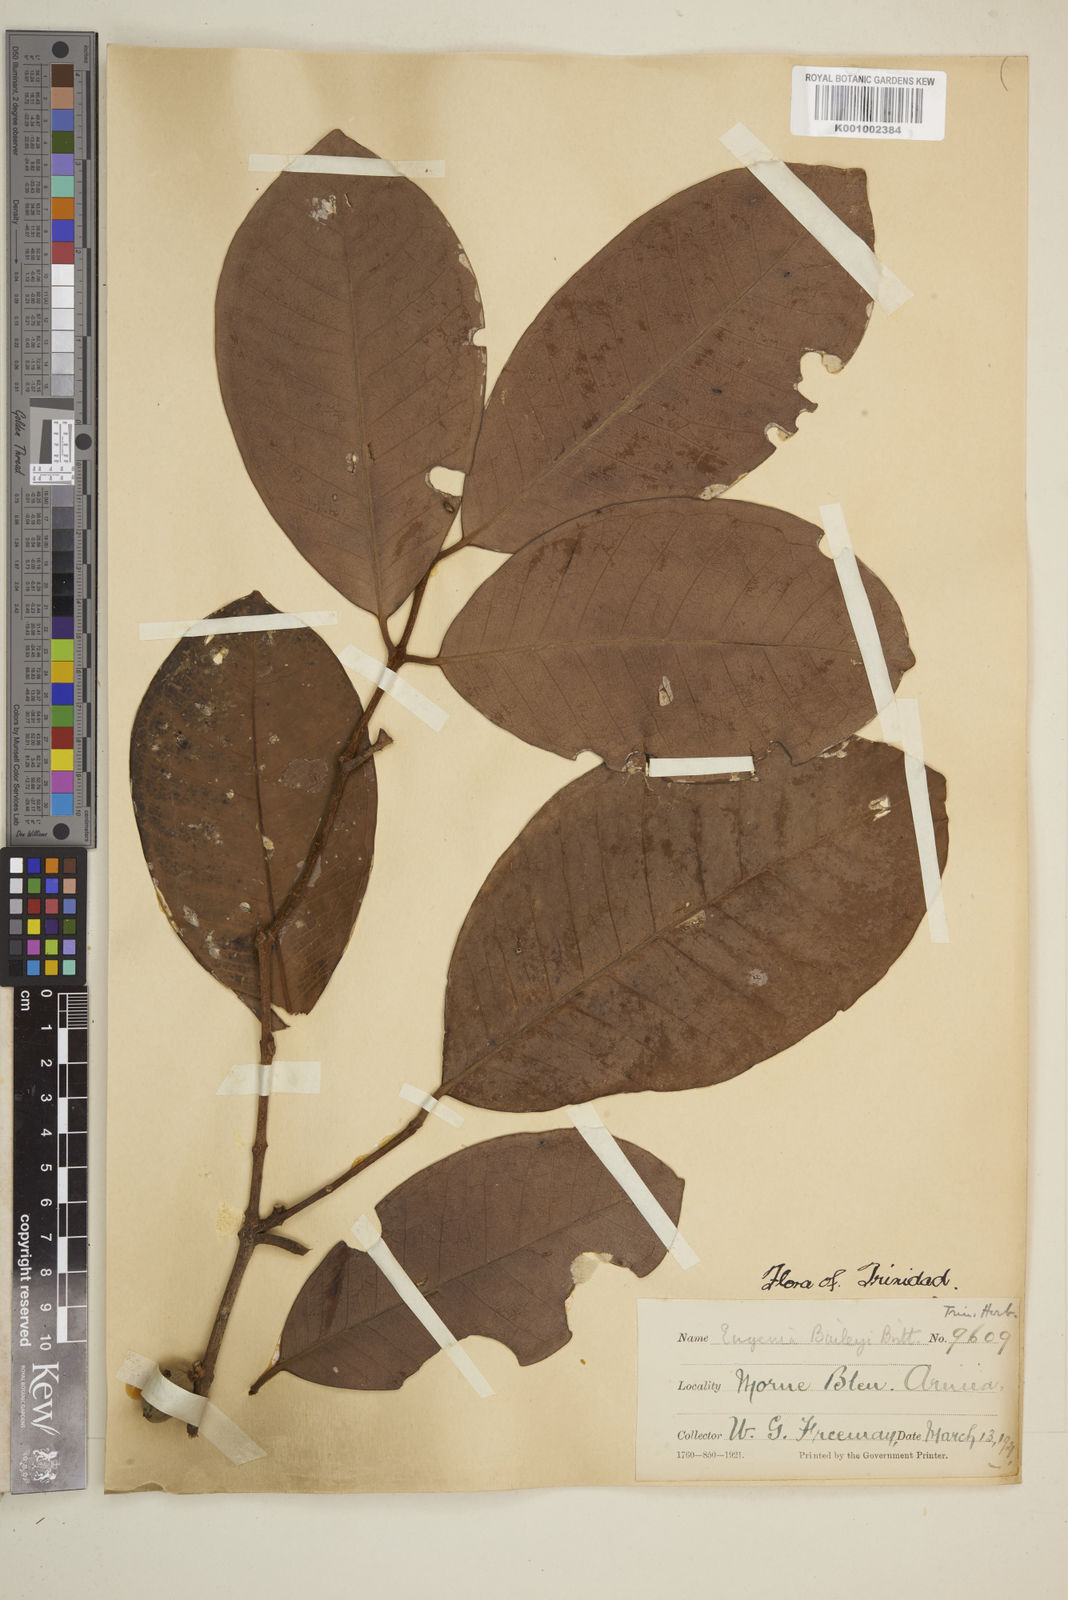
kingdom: Plantae
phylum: Tracheophyta
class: Magnoliopsida
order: Myrtales
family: Myrtaceae
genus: Eugenia
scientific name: Eugenia baileyi
